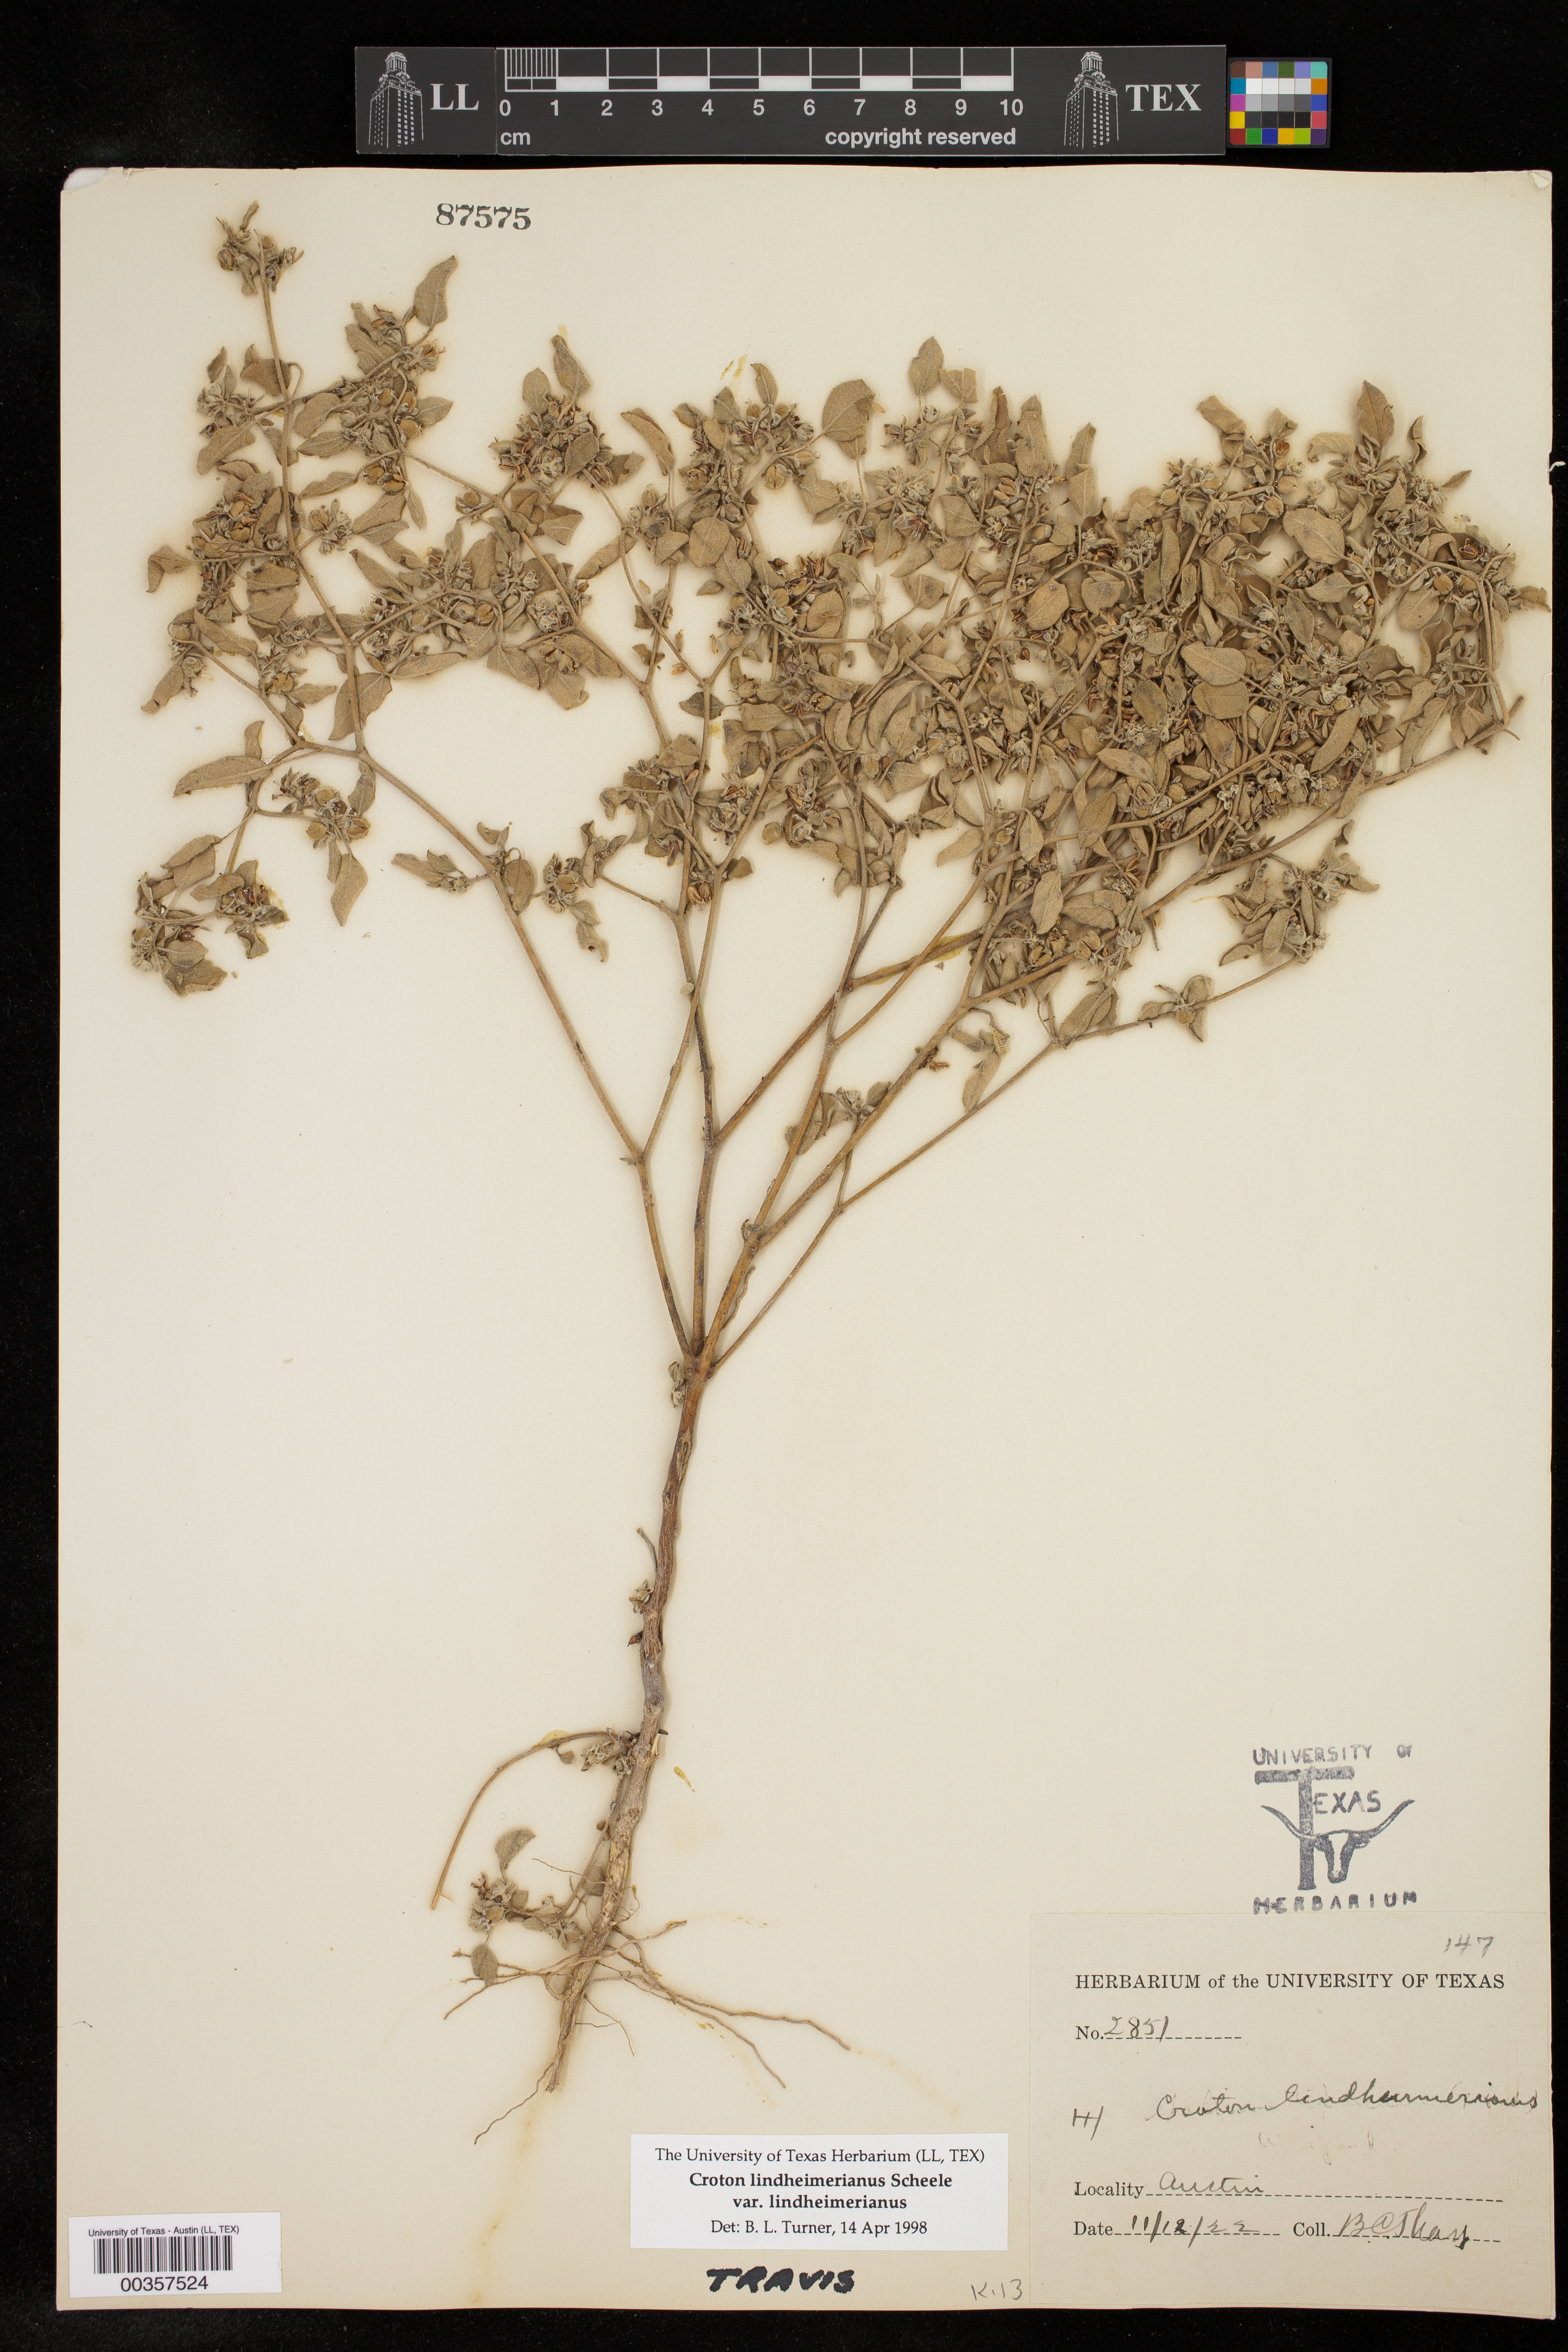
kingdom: Plantae
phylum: Tracheophyta
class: Magnoliopsida
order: Malpighiales
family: Euphorbiaceae
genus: Croton
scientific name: Croton lindheimerianus
